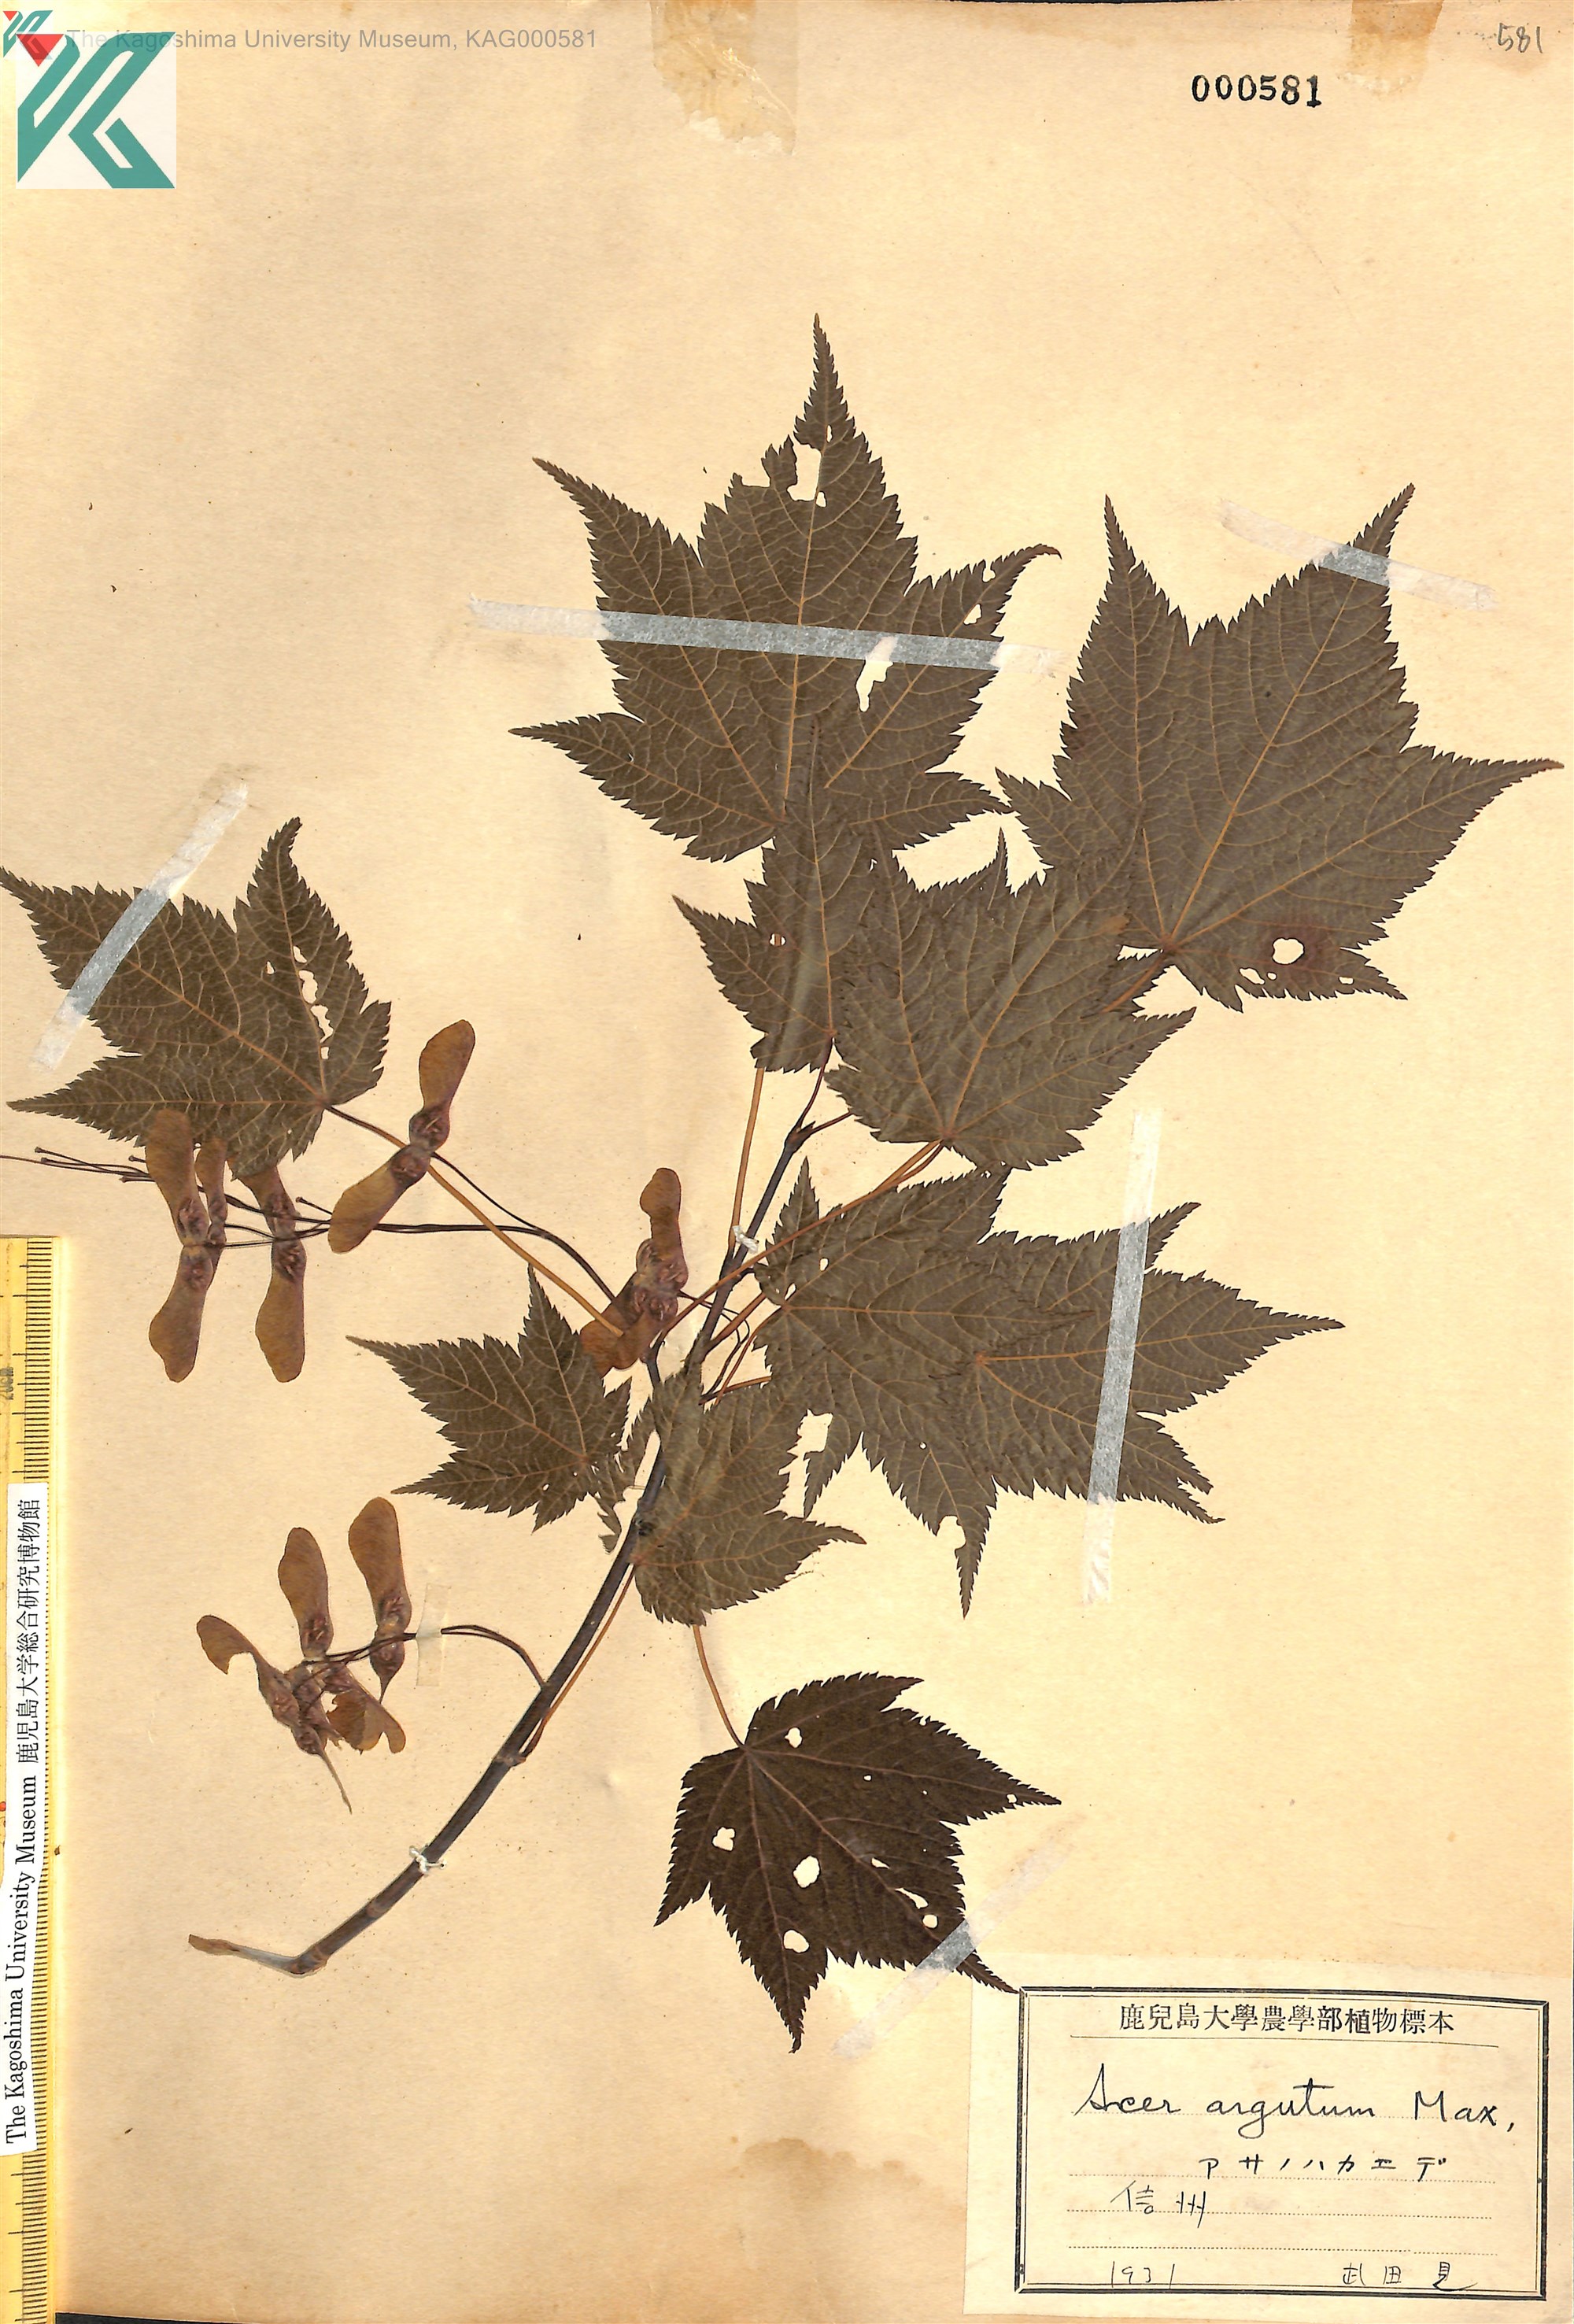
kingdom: Plantae
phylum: Tracheophyta
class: Magnoliopsida
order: Sapindales
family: Sapindaceae
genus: Acer
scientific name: Acer argutum
